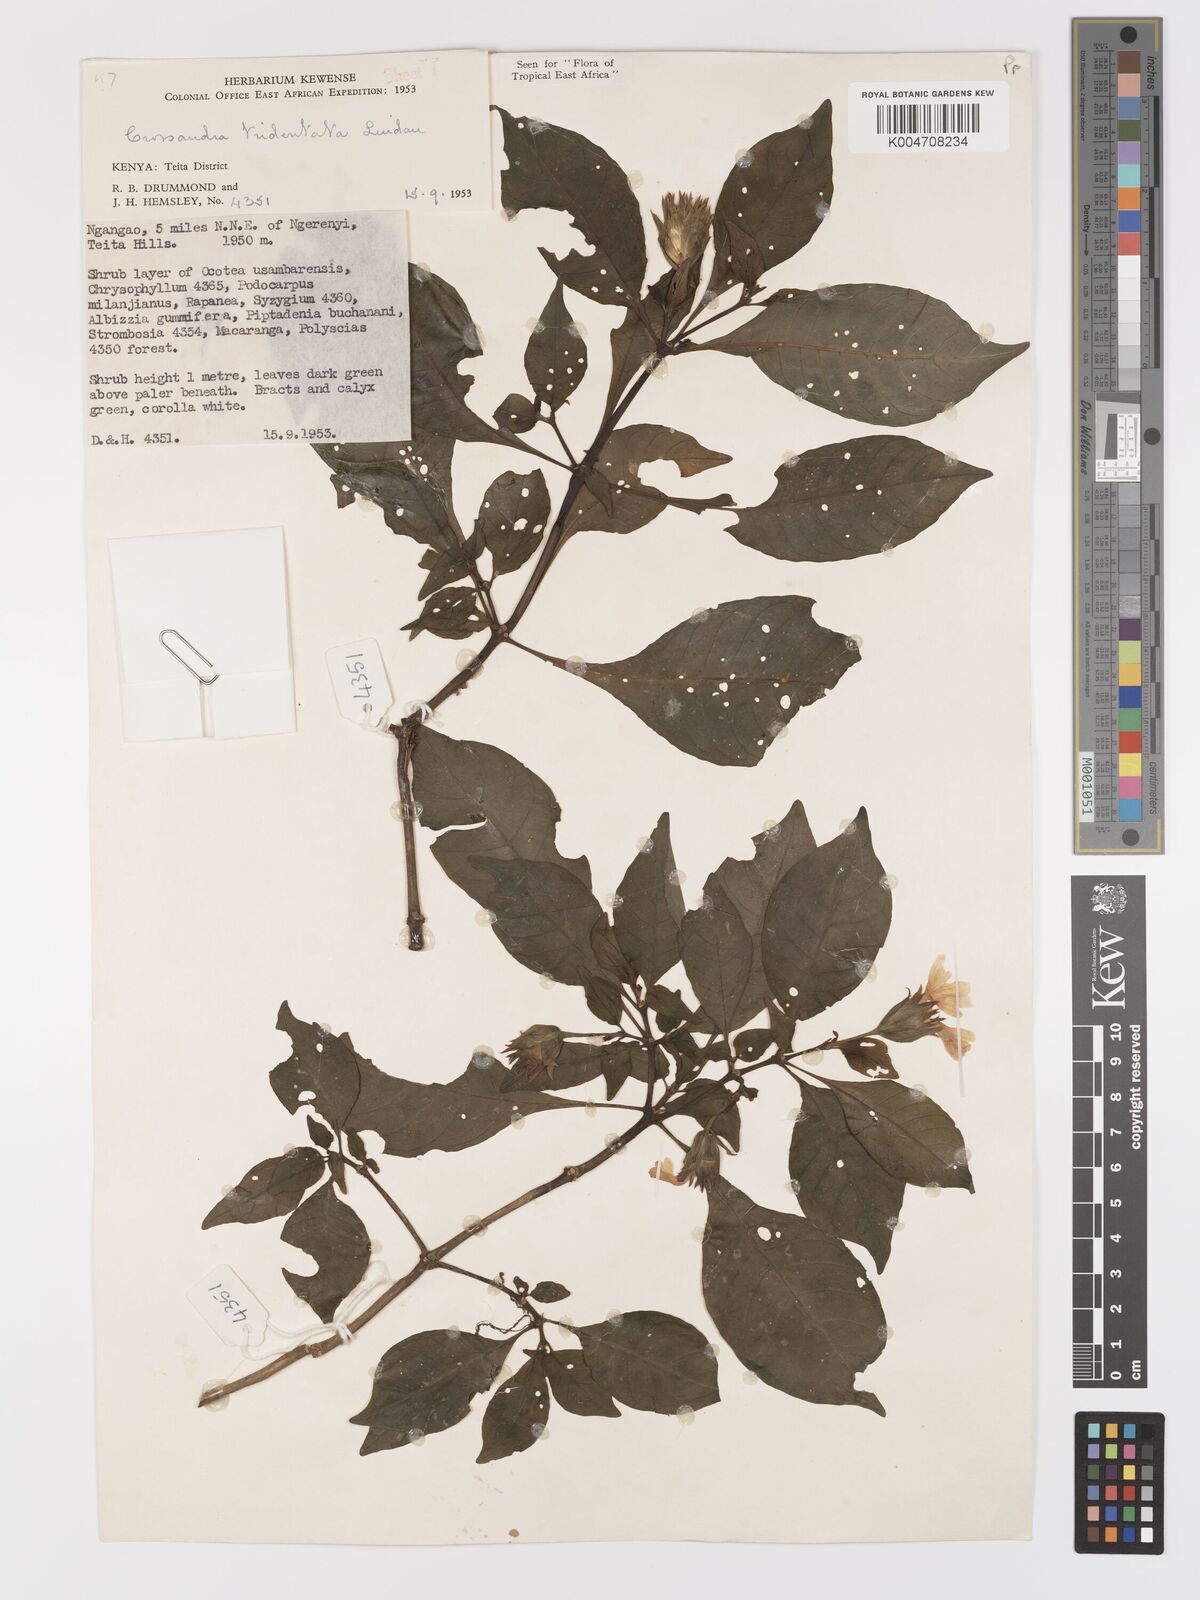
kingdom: Plantae
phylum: Tracheophyta
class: Magnoliopsida
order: Lamiales
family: Acanthaceae
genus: Crossandra
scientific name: Crossandra tridentata
